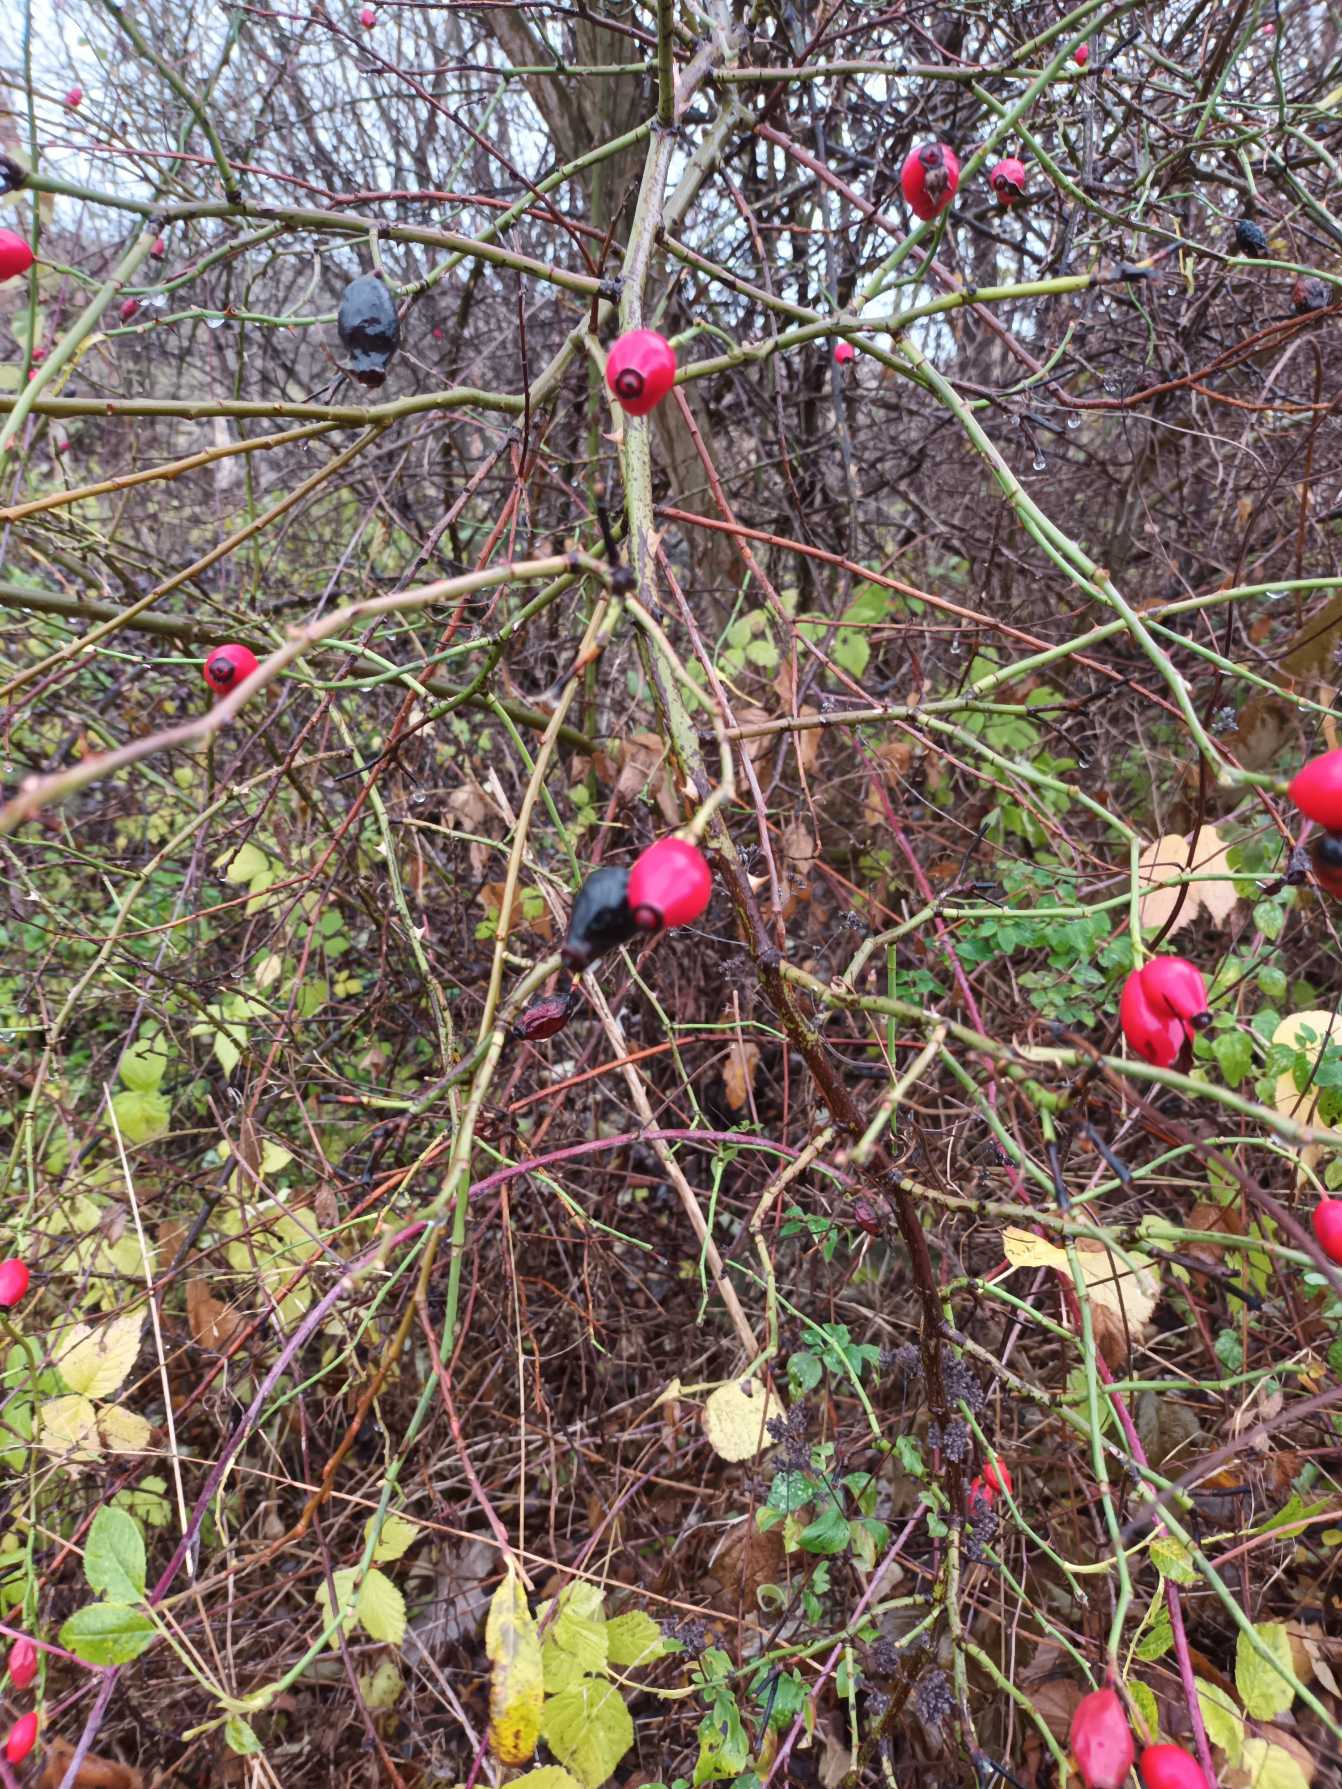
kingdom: Plantae
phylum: Tracheophyta
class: Magnoliopsida
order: Rosales
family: Rosaceae
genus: Rosa
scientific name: Rosa canina
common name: Glat hunde-rose
